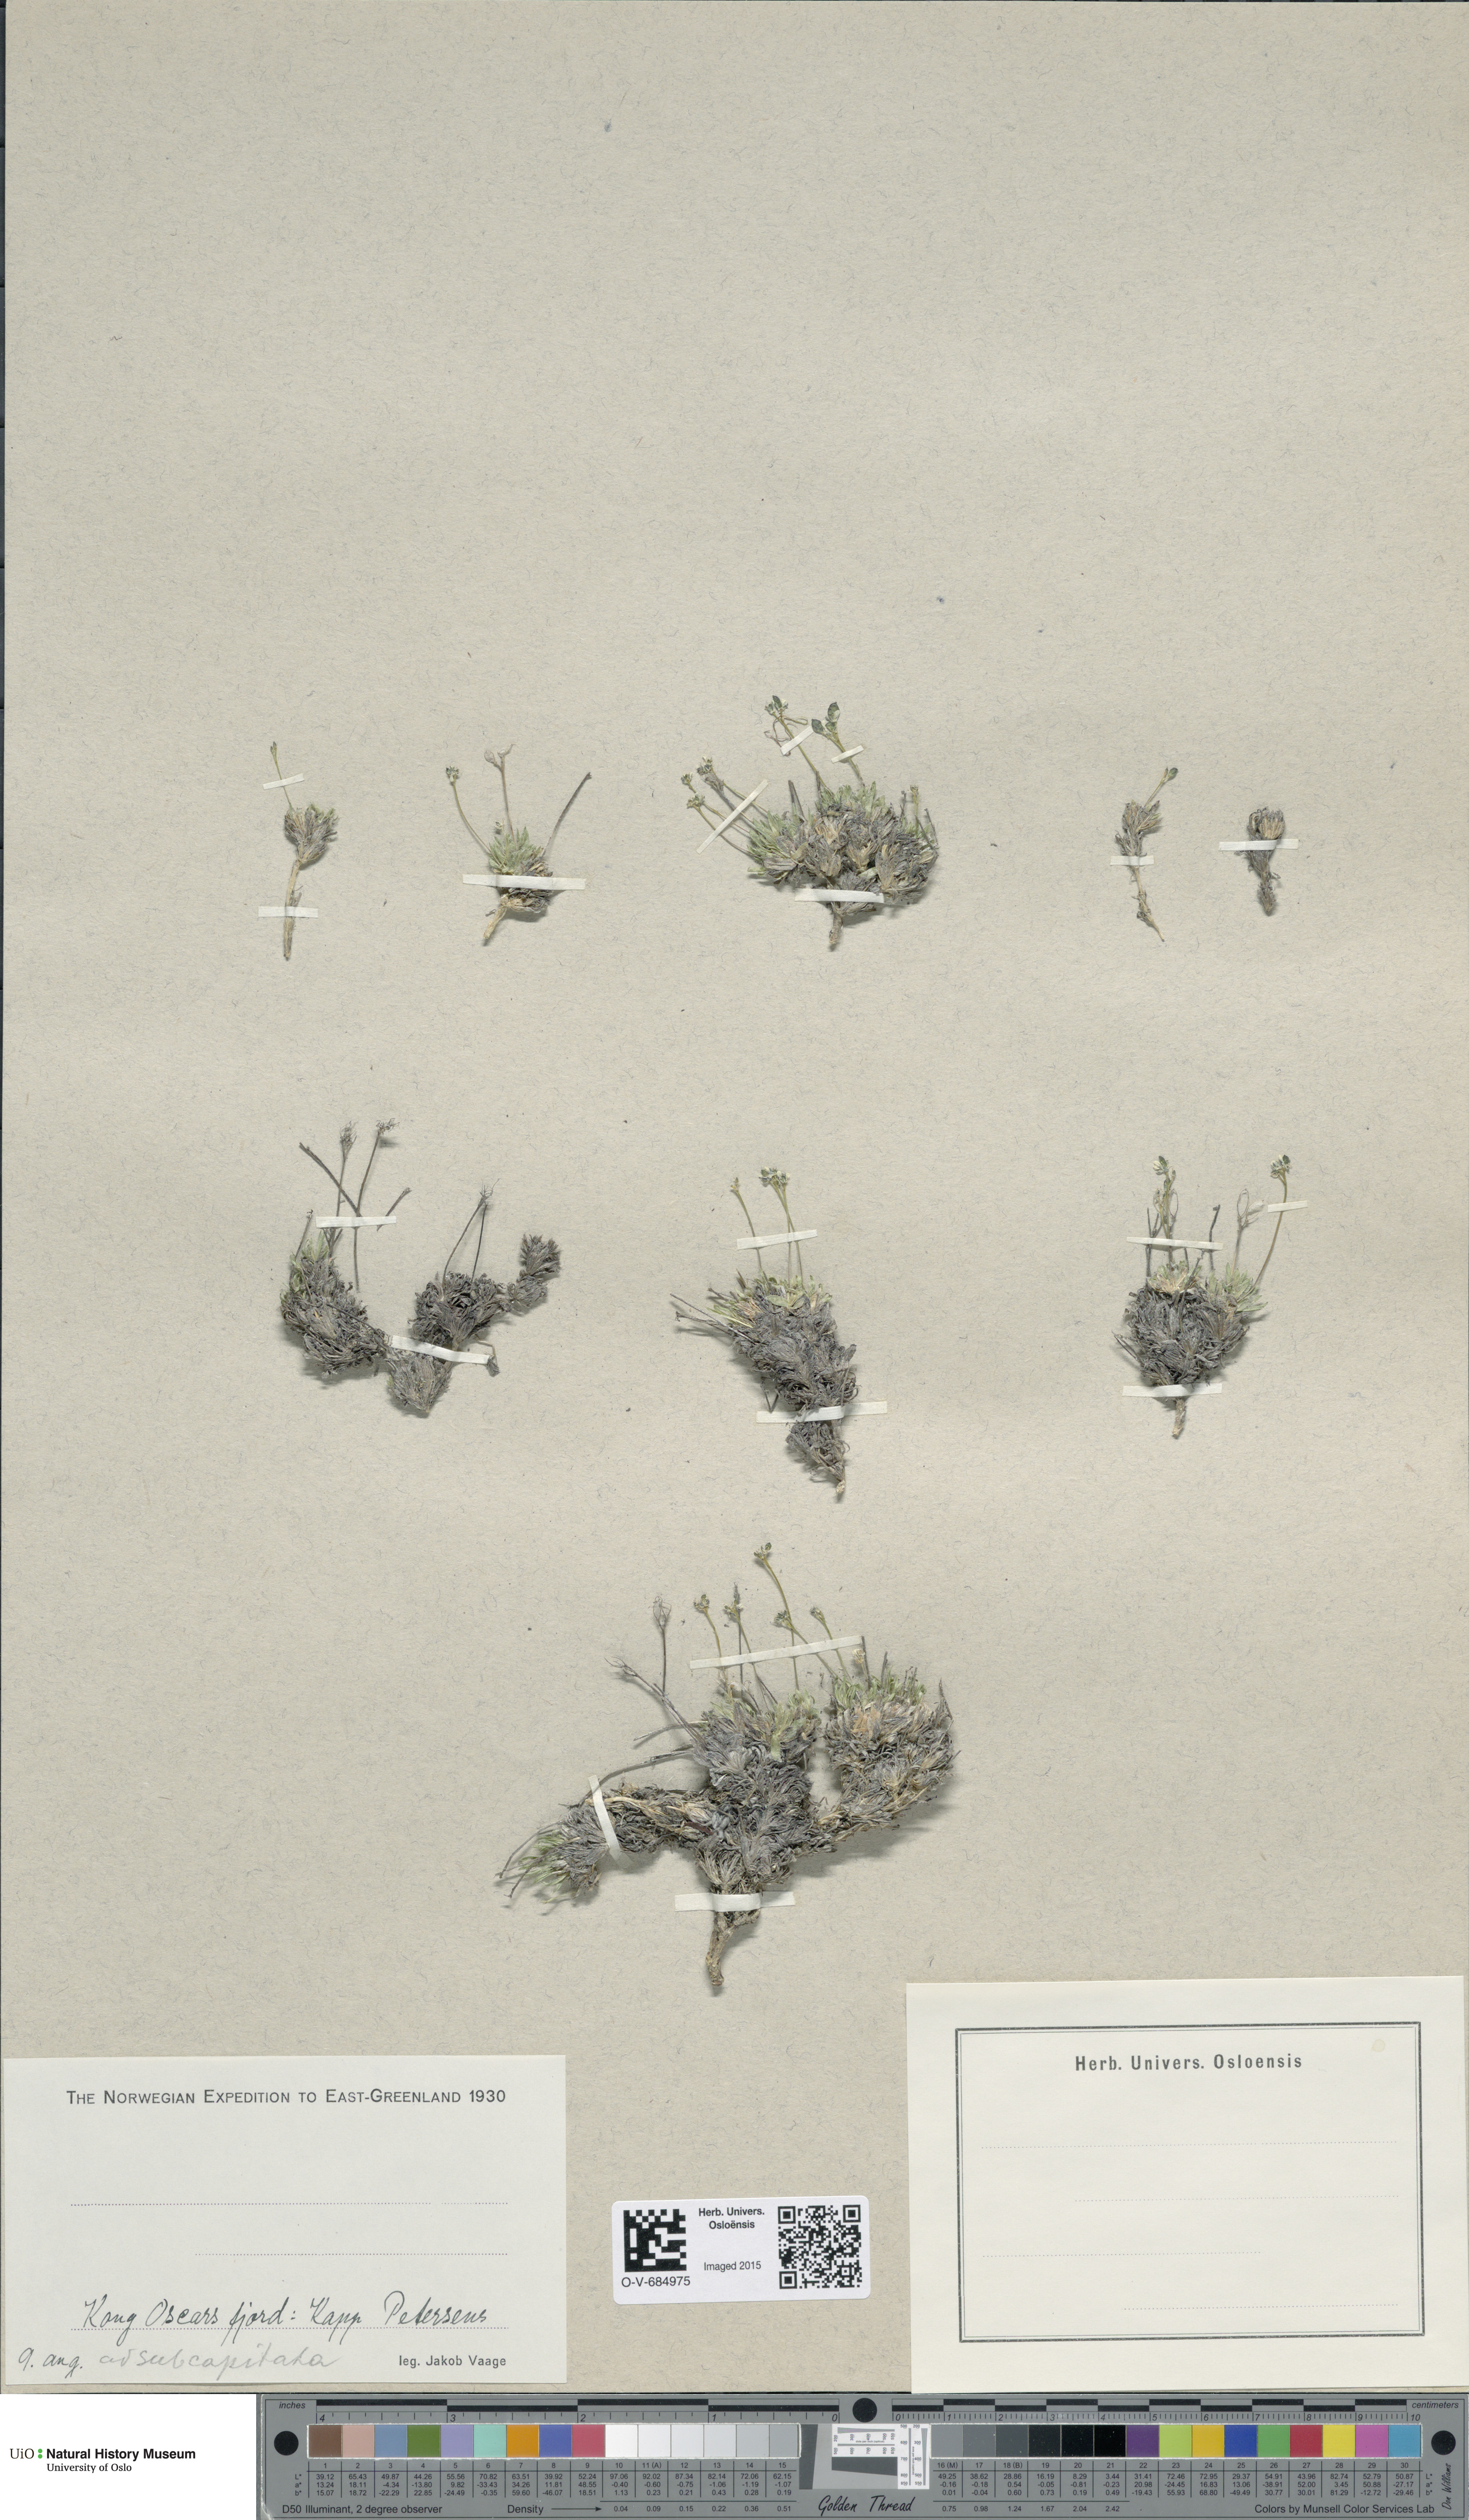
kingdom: Plantae
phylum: Tracheophyta
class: Magnoliopsida
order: Brassicales
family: Brassicaceae
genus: Draba
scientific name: Draba subcapitata
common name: Ellesmere island draba
